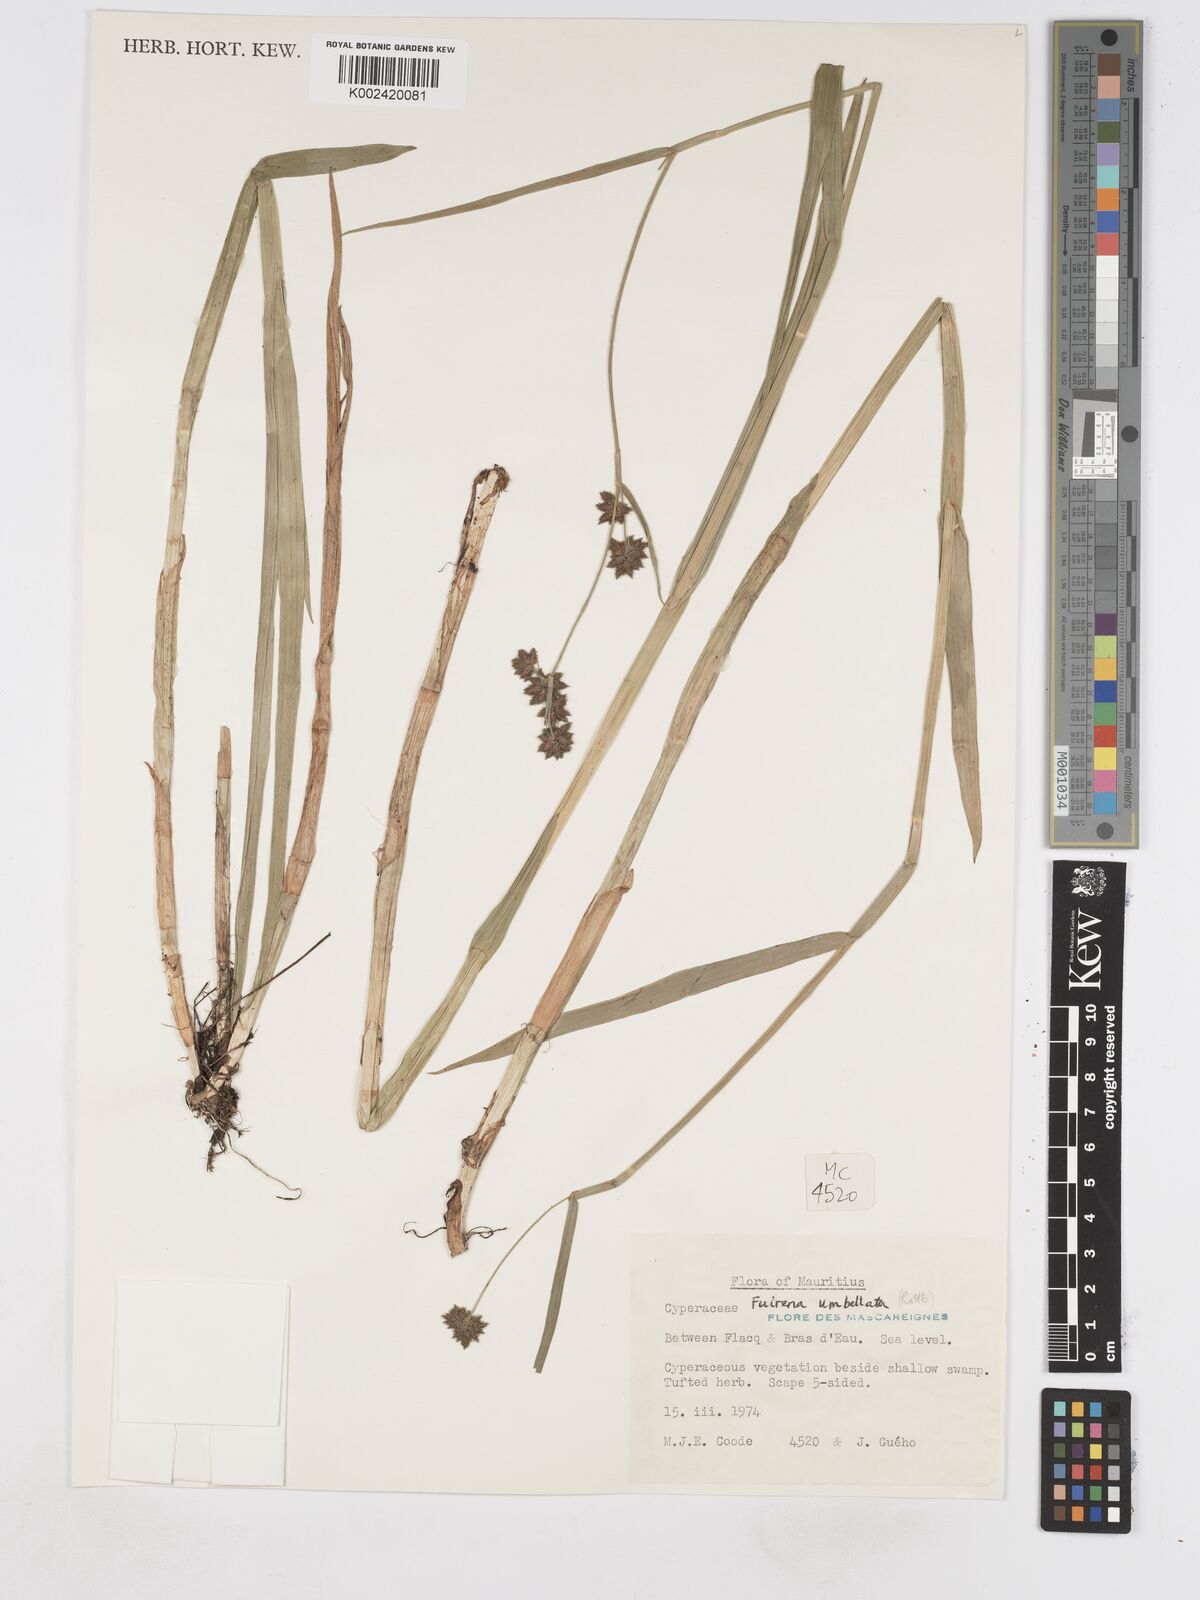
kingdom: Plantae
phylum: Tracheophyta
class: Liliopsida
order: Poales
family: Cyperaceae
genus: Fuirena
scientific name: Fuirena umbellata
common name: Yefen
